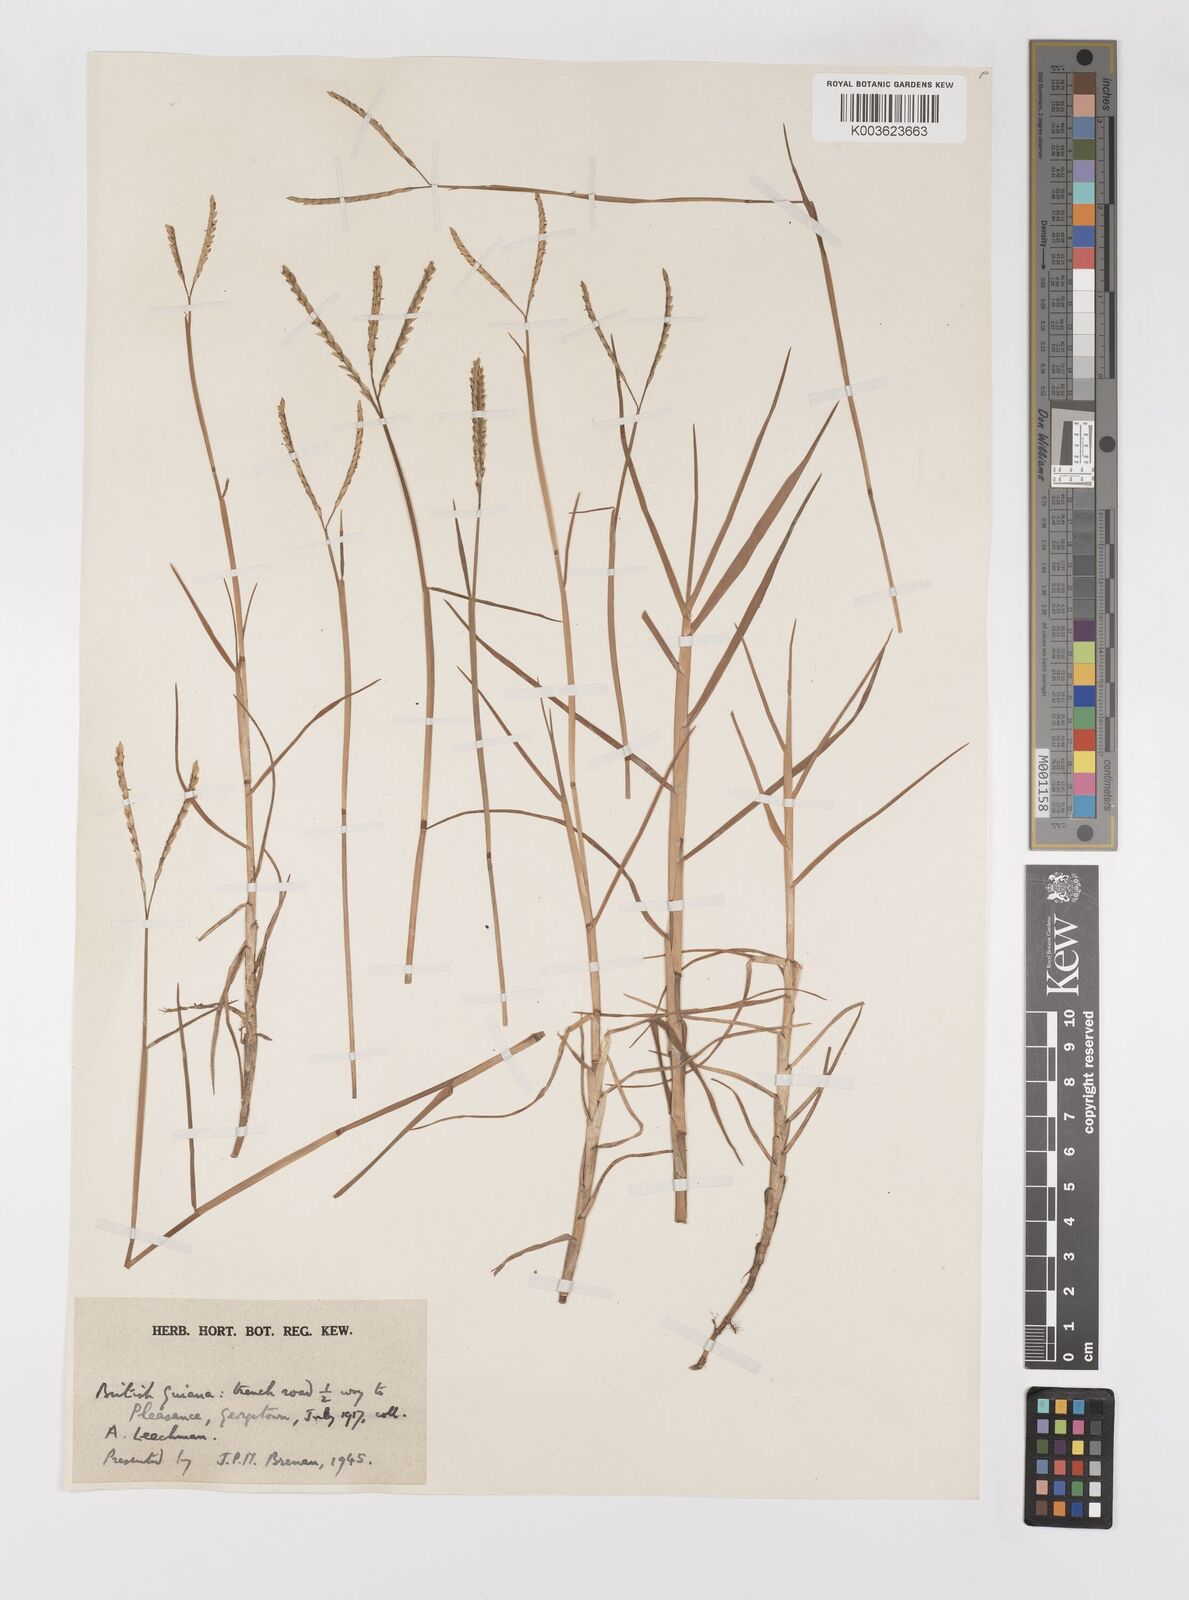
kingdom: Plantae
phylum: Tracheophyta
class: Liliopsida
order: Poales
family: Poaceae
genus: Paspalum
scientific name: Paspalum vaginatum
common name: Seashore paspalum
